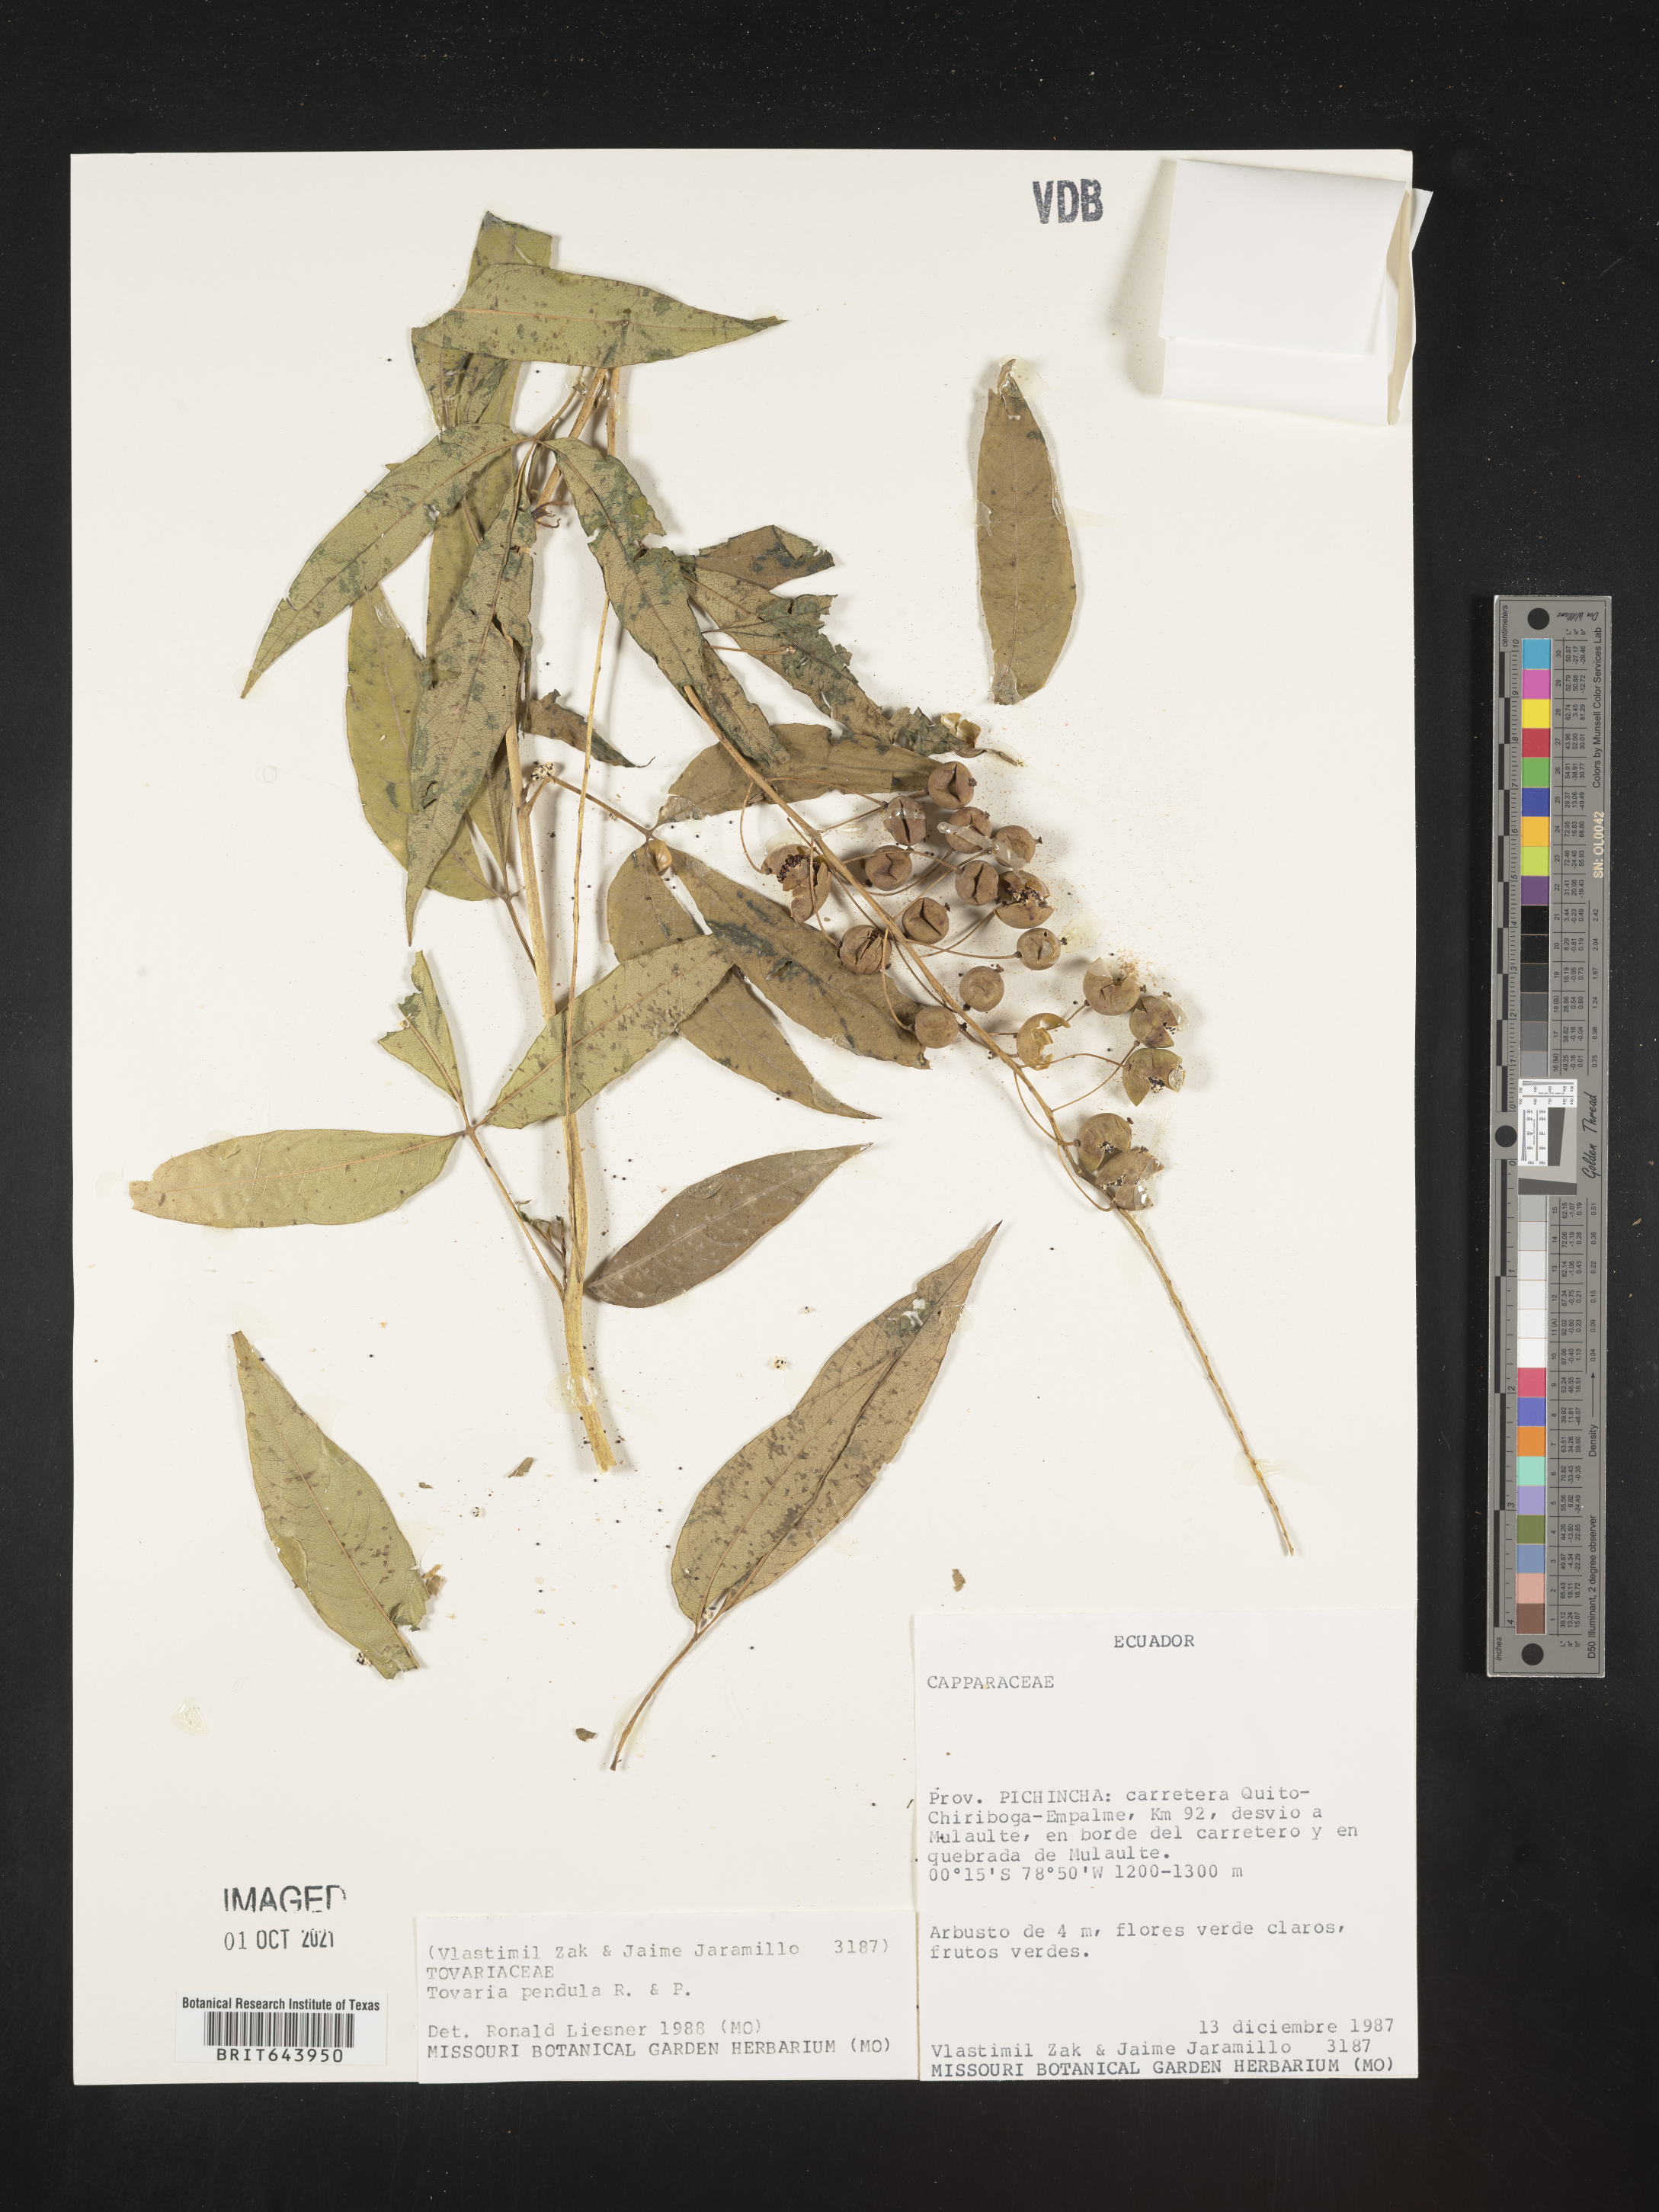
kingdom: Plantae
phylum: Tracheophyta
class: Magnoliopsida
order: Brassicales
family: Tovariaceae
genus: Tovaria
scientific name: Tovaria
